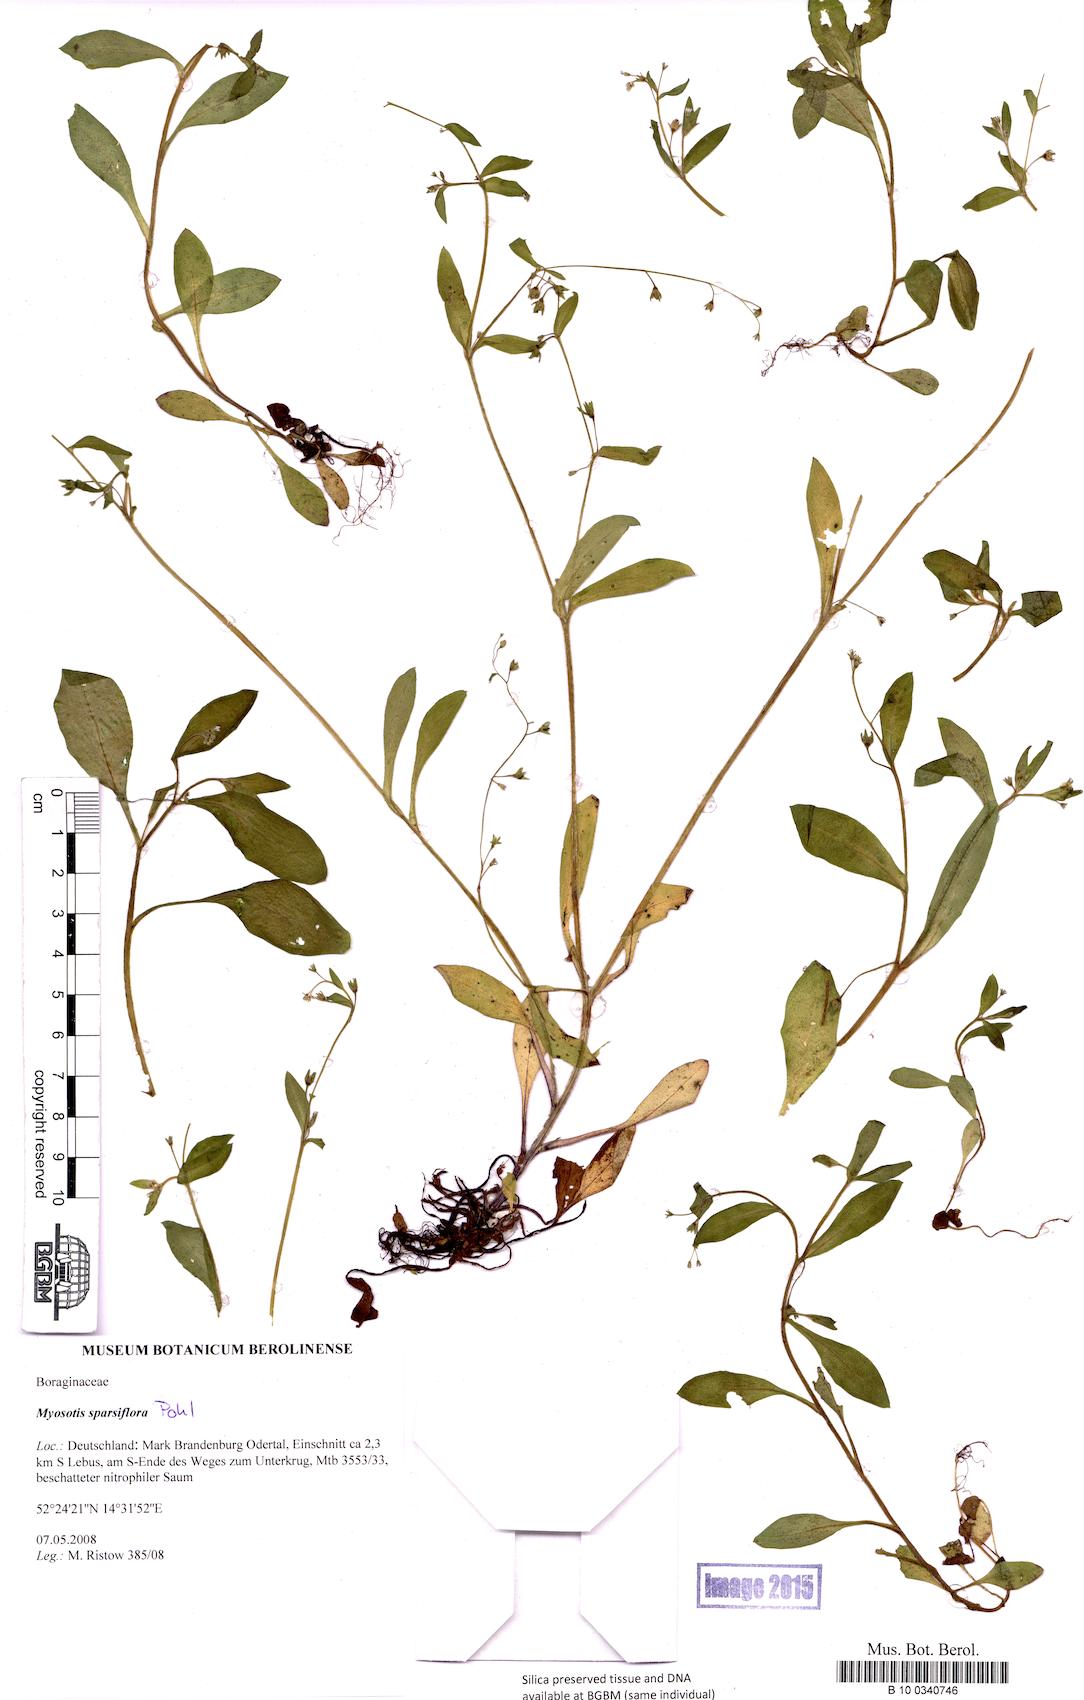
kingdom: Plantae
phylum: Tracheophyta
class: Magnoliopsida
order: Boraginales
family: Boraginaceae
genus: Myosotis
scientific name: Myosotis sparsiflora
